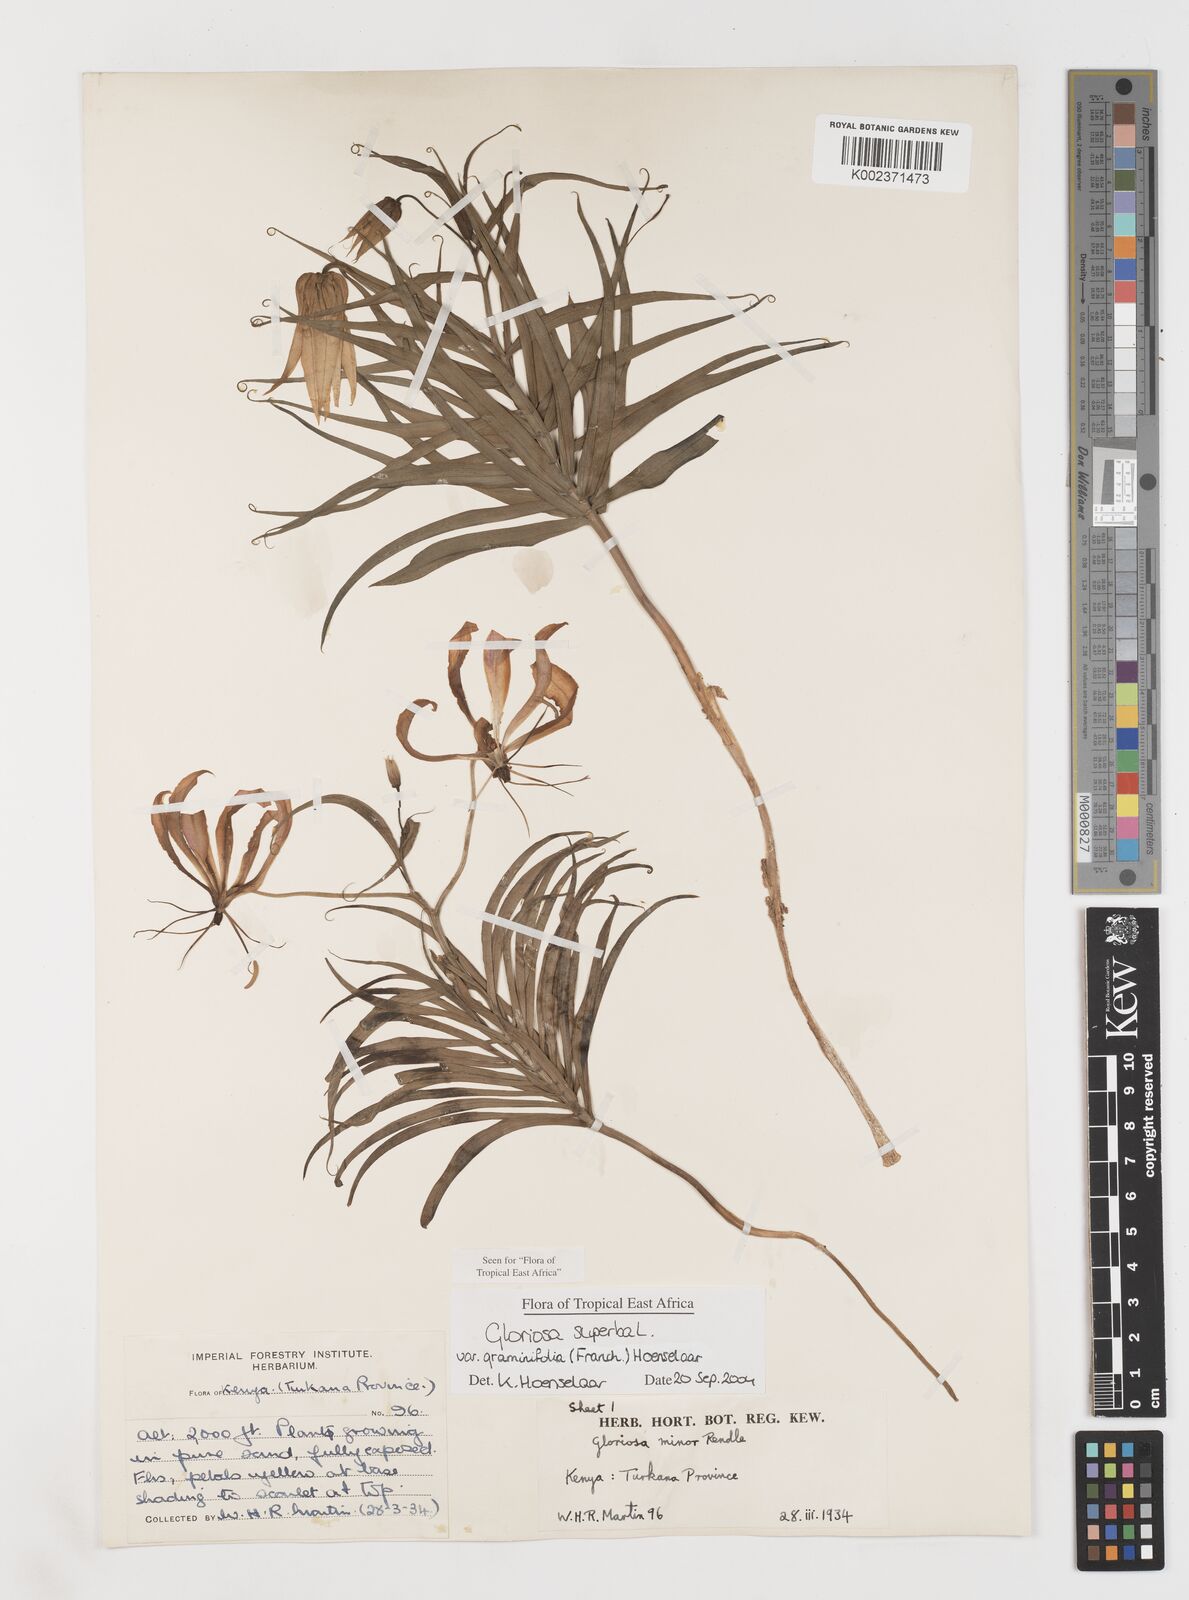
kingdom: Plantae
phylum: Tracheophyta
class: Liliopsida
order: Liliales
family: Colchicaceae
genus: Gloriosa
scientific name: Gloriosa baudii
